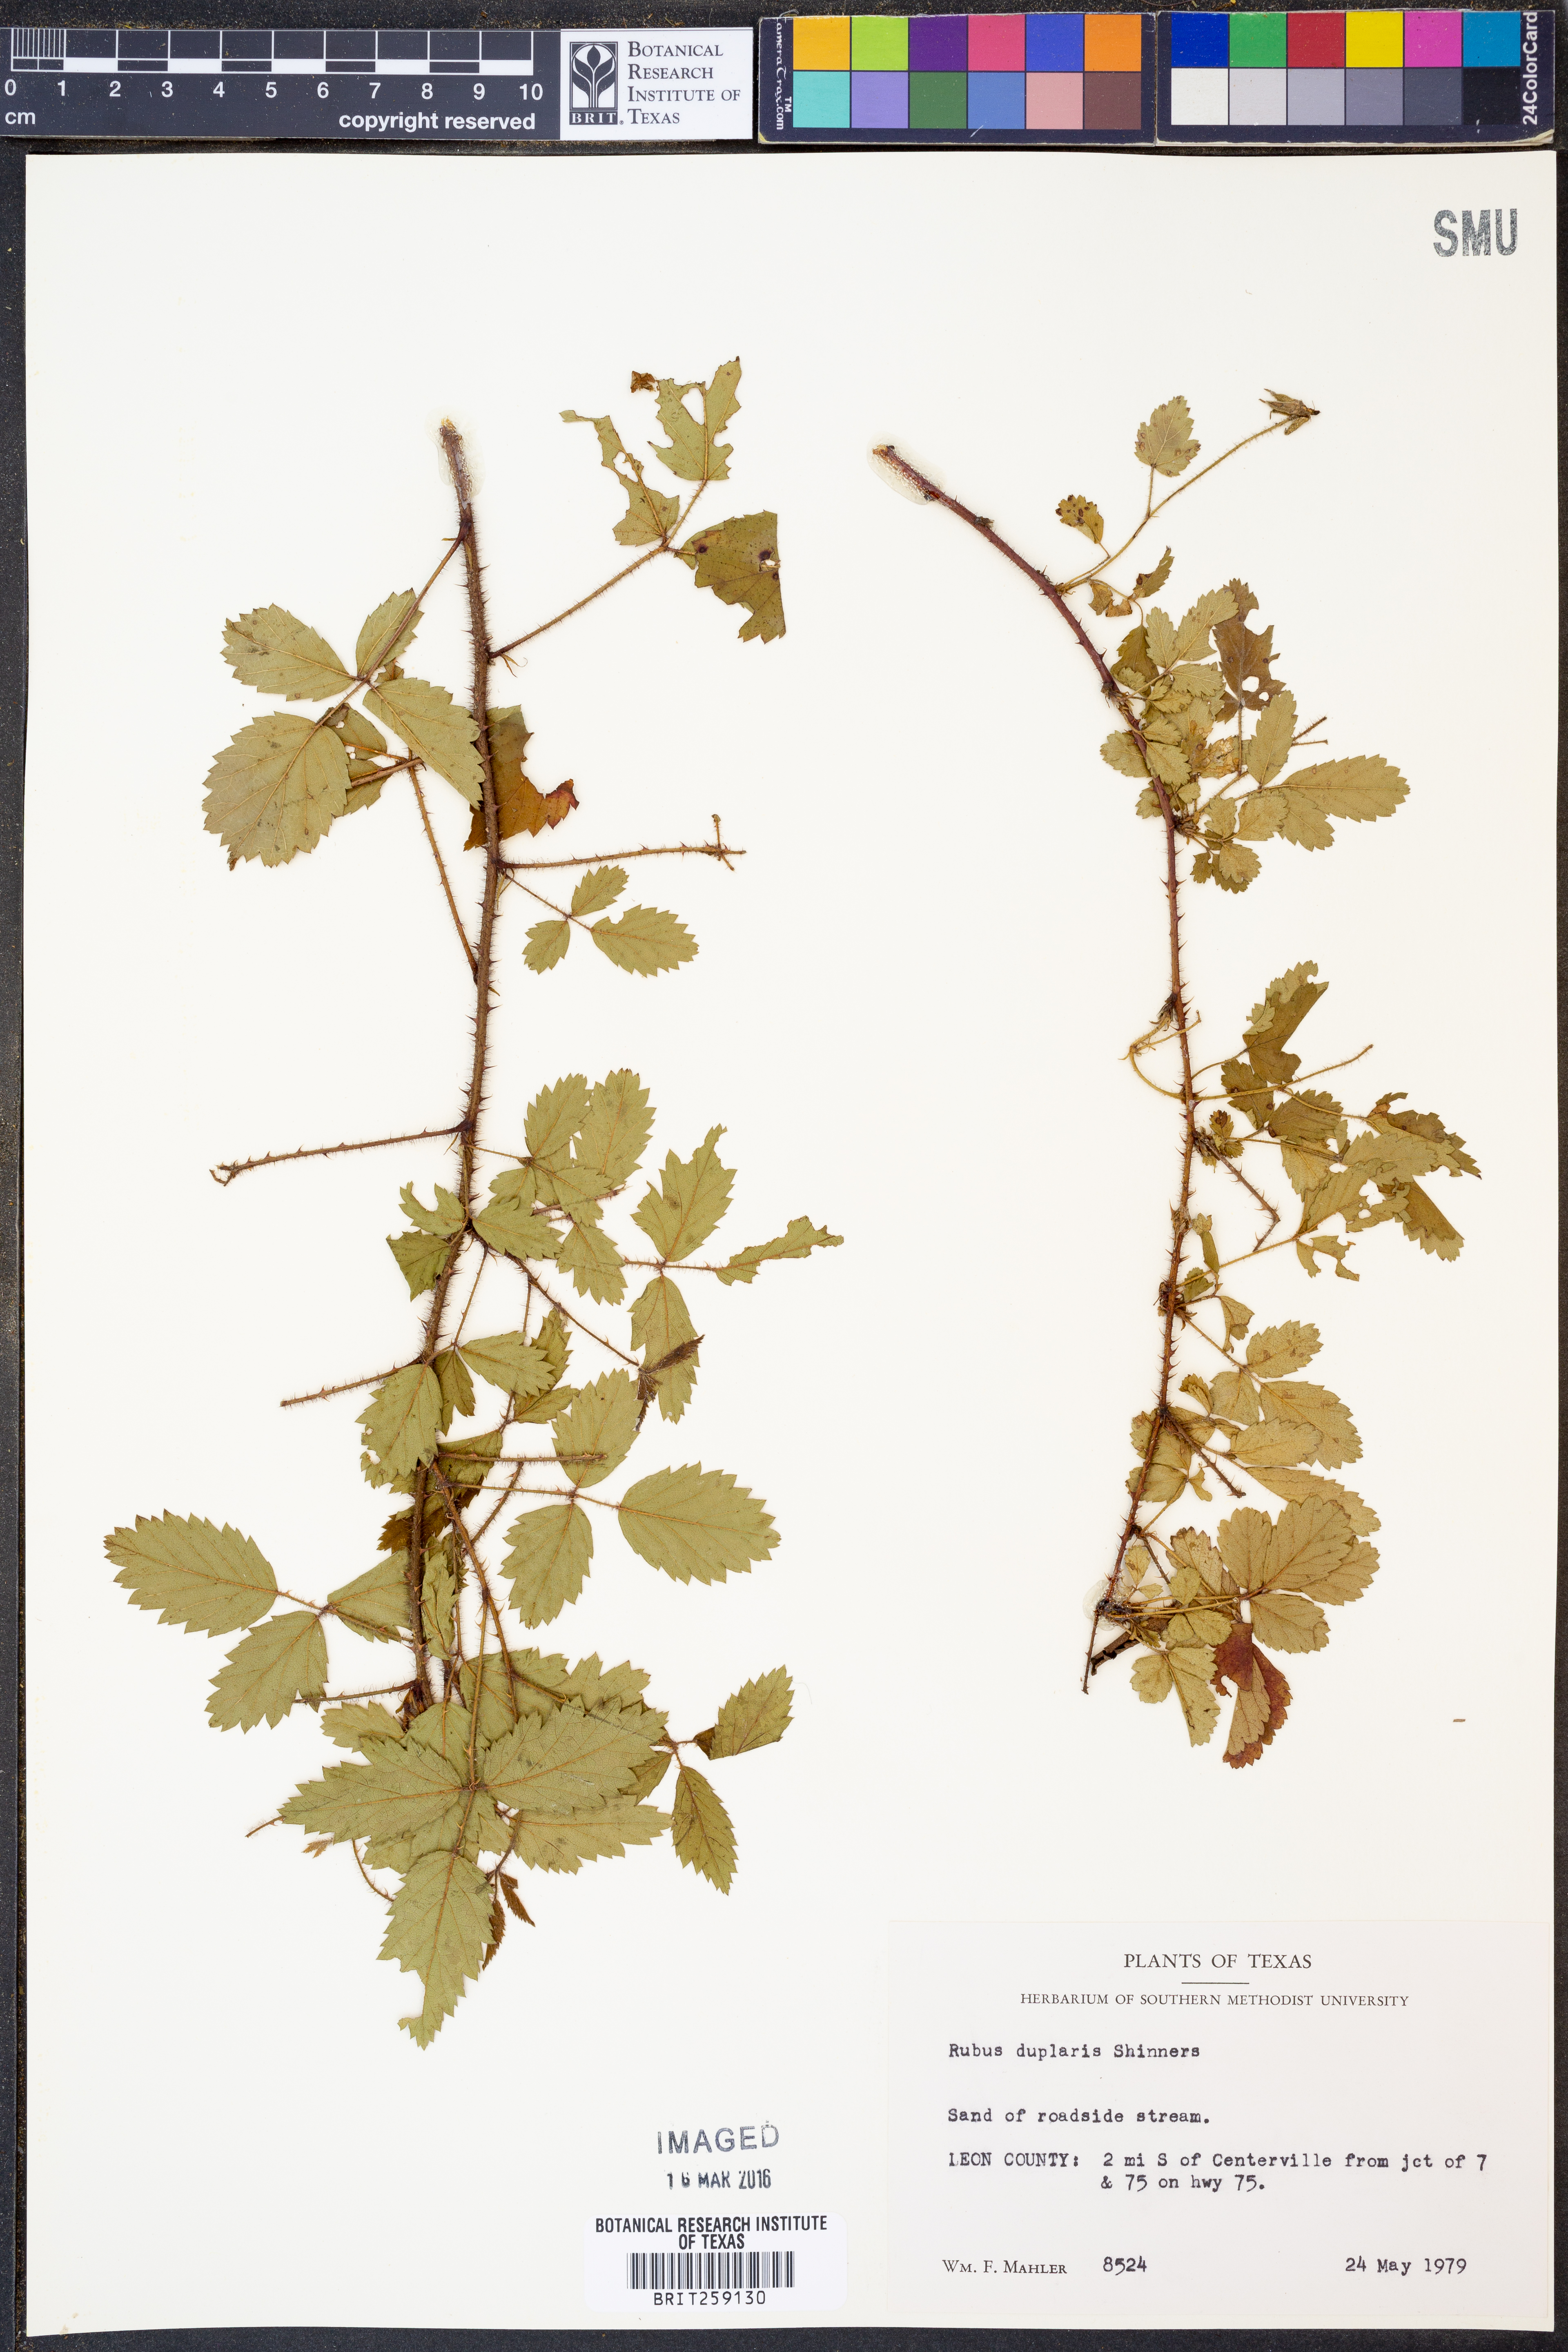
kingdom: Plantae
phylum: Tracheophyta
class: Magnoliopsida
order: Rosales
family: Rosaceae
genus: Rubus
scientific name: Rubus riograndis
